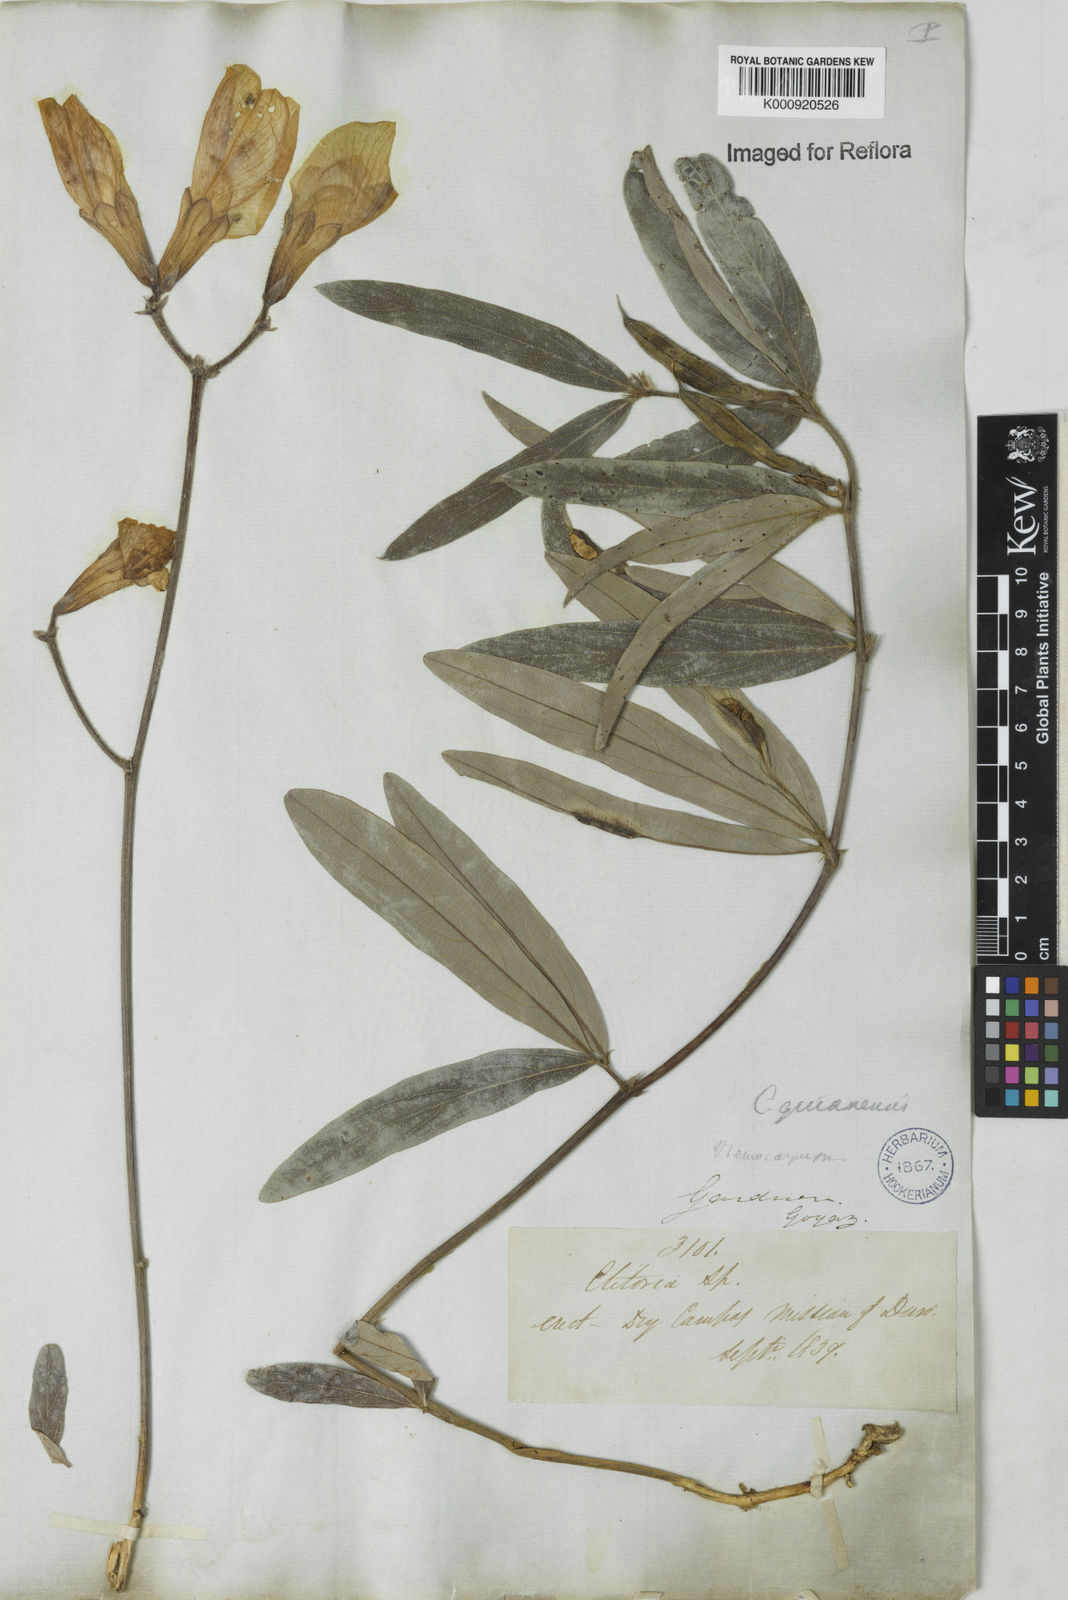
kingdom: Plantae
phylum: Tracheophyta
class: Magnoliopsida
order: Fabales
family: Fabaceae
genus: Clitoria
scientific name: Clitoria guianensis
